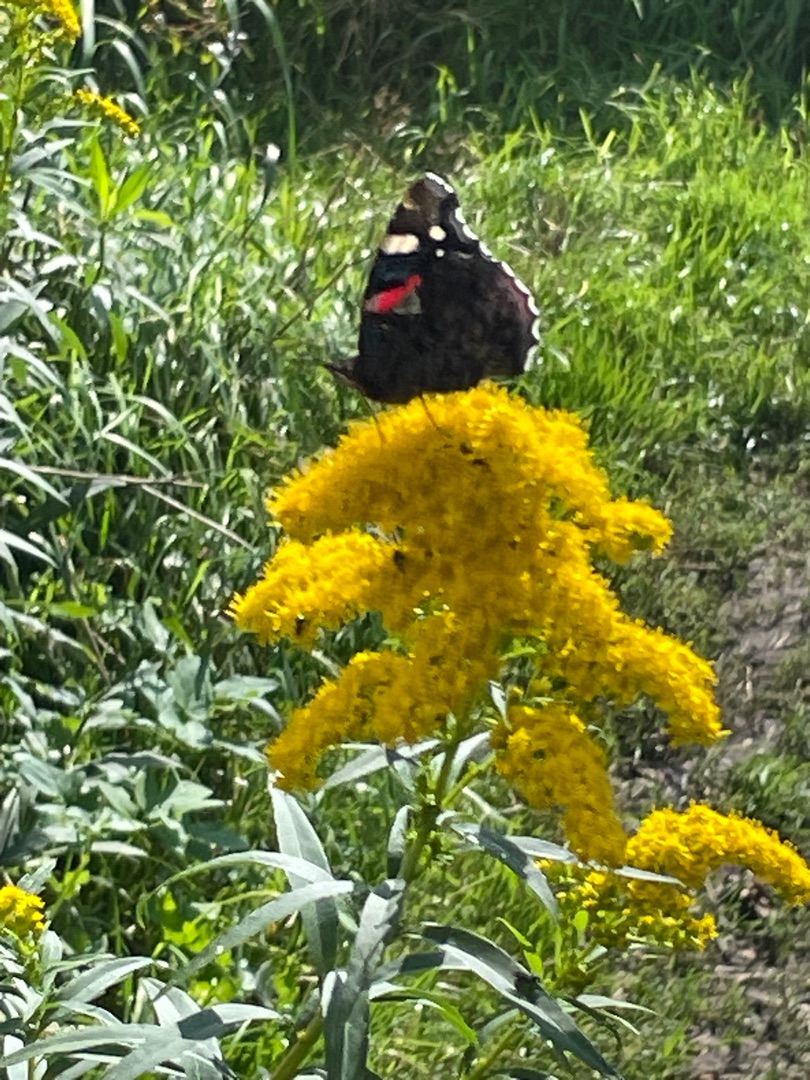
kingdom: Animalia
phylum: Arthropoda
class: Insecta
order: Lepidoptera
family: Nymphalidae
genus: Vanessa
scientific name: Vanessa atalanta
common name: Admiral
